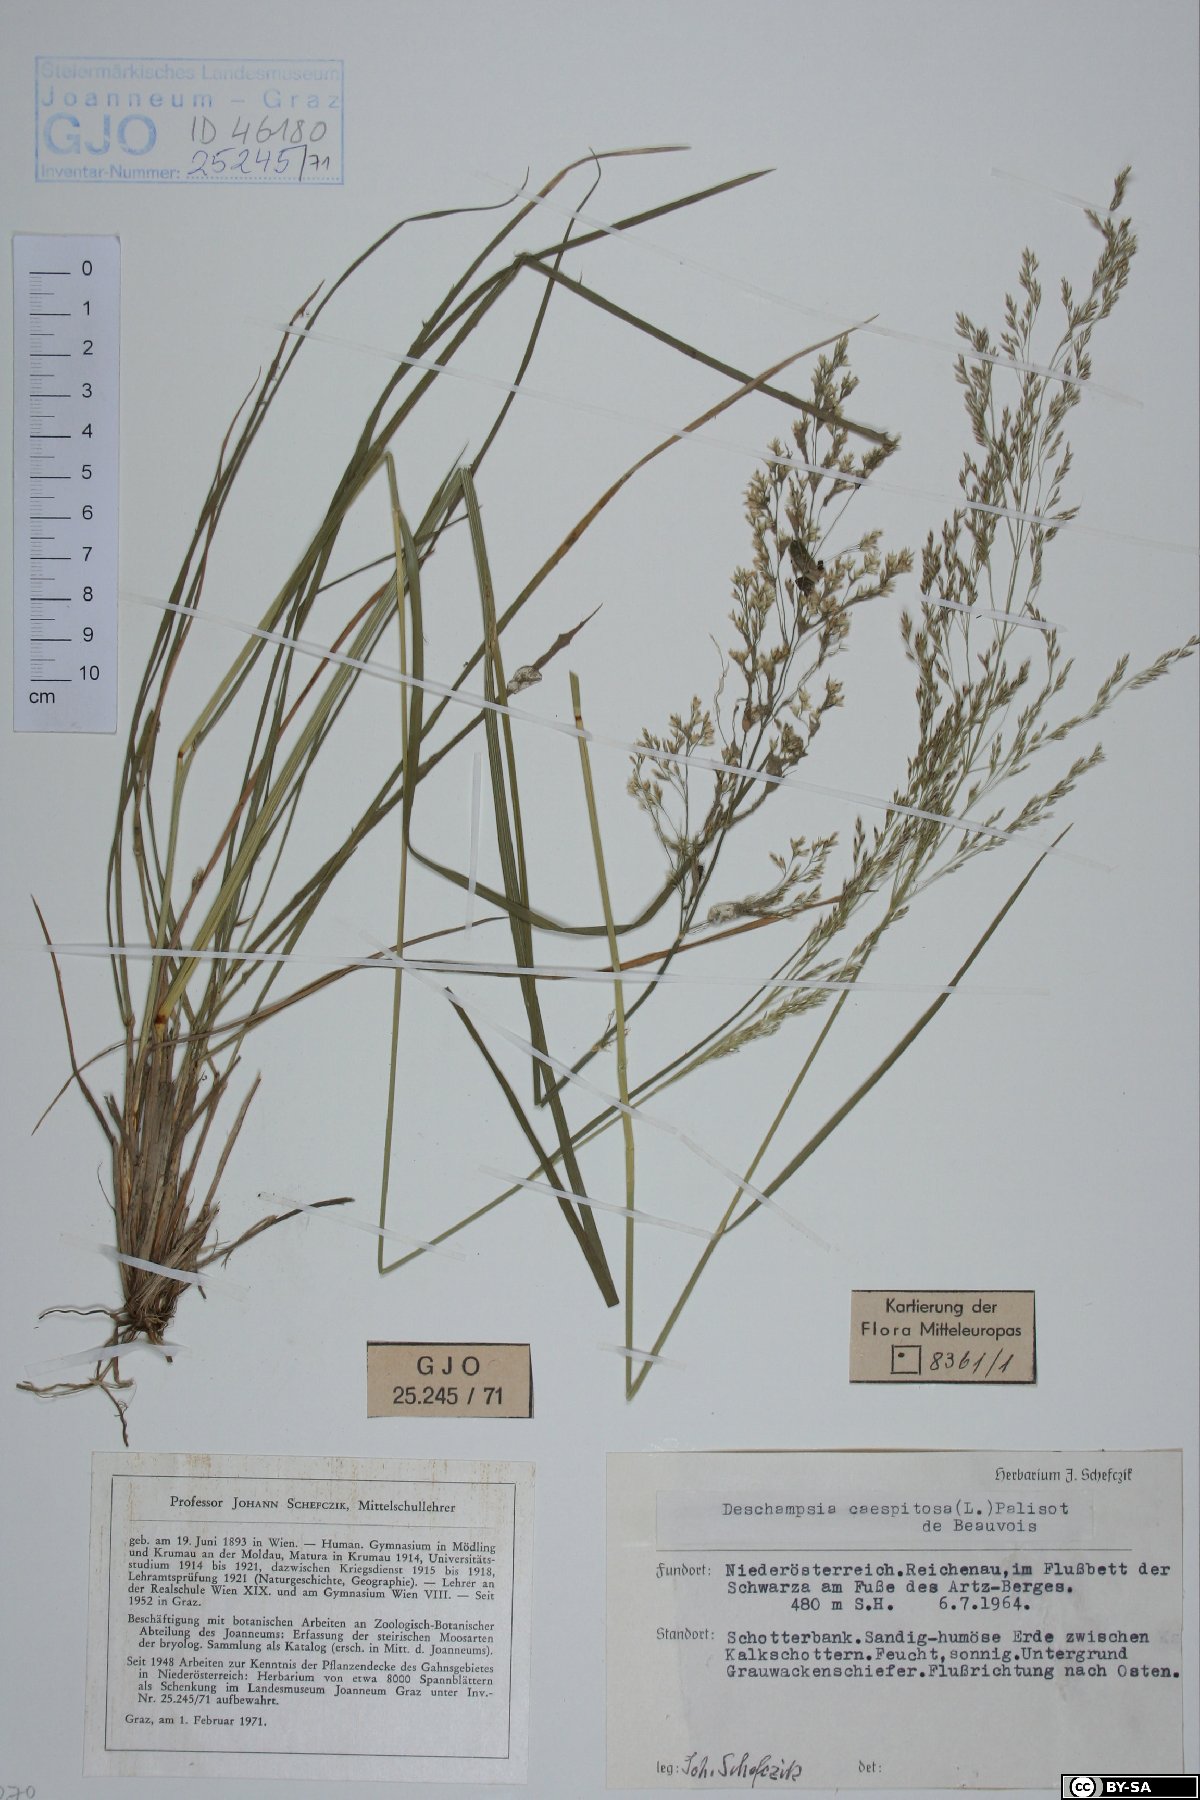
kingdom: Plantae
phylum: Tracheophyta
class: Liliopsida
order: Poales
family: Poaceae
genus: Deschampsia
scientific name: Deschampsia cespitosa
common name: Tufted hair-grass
